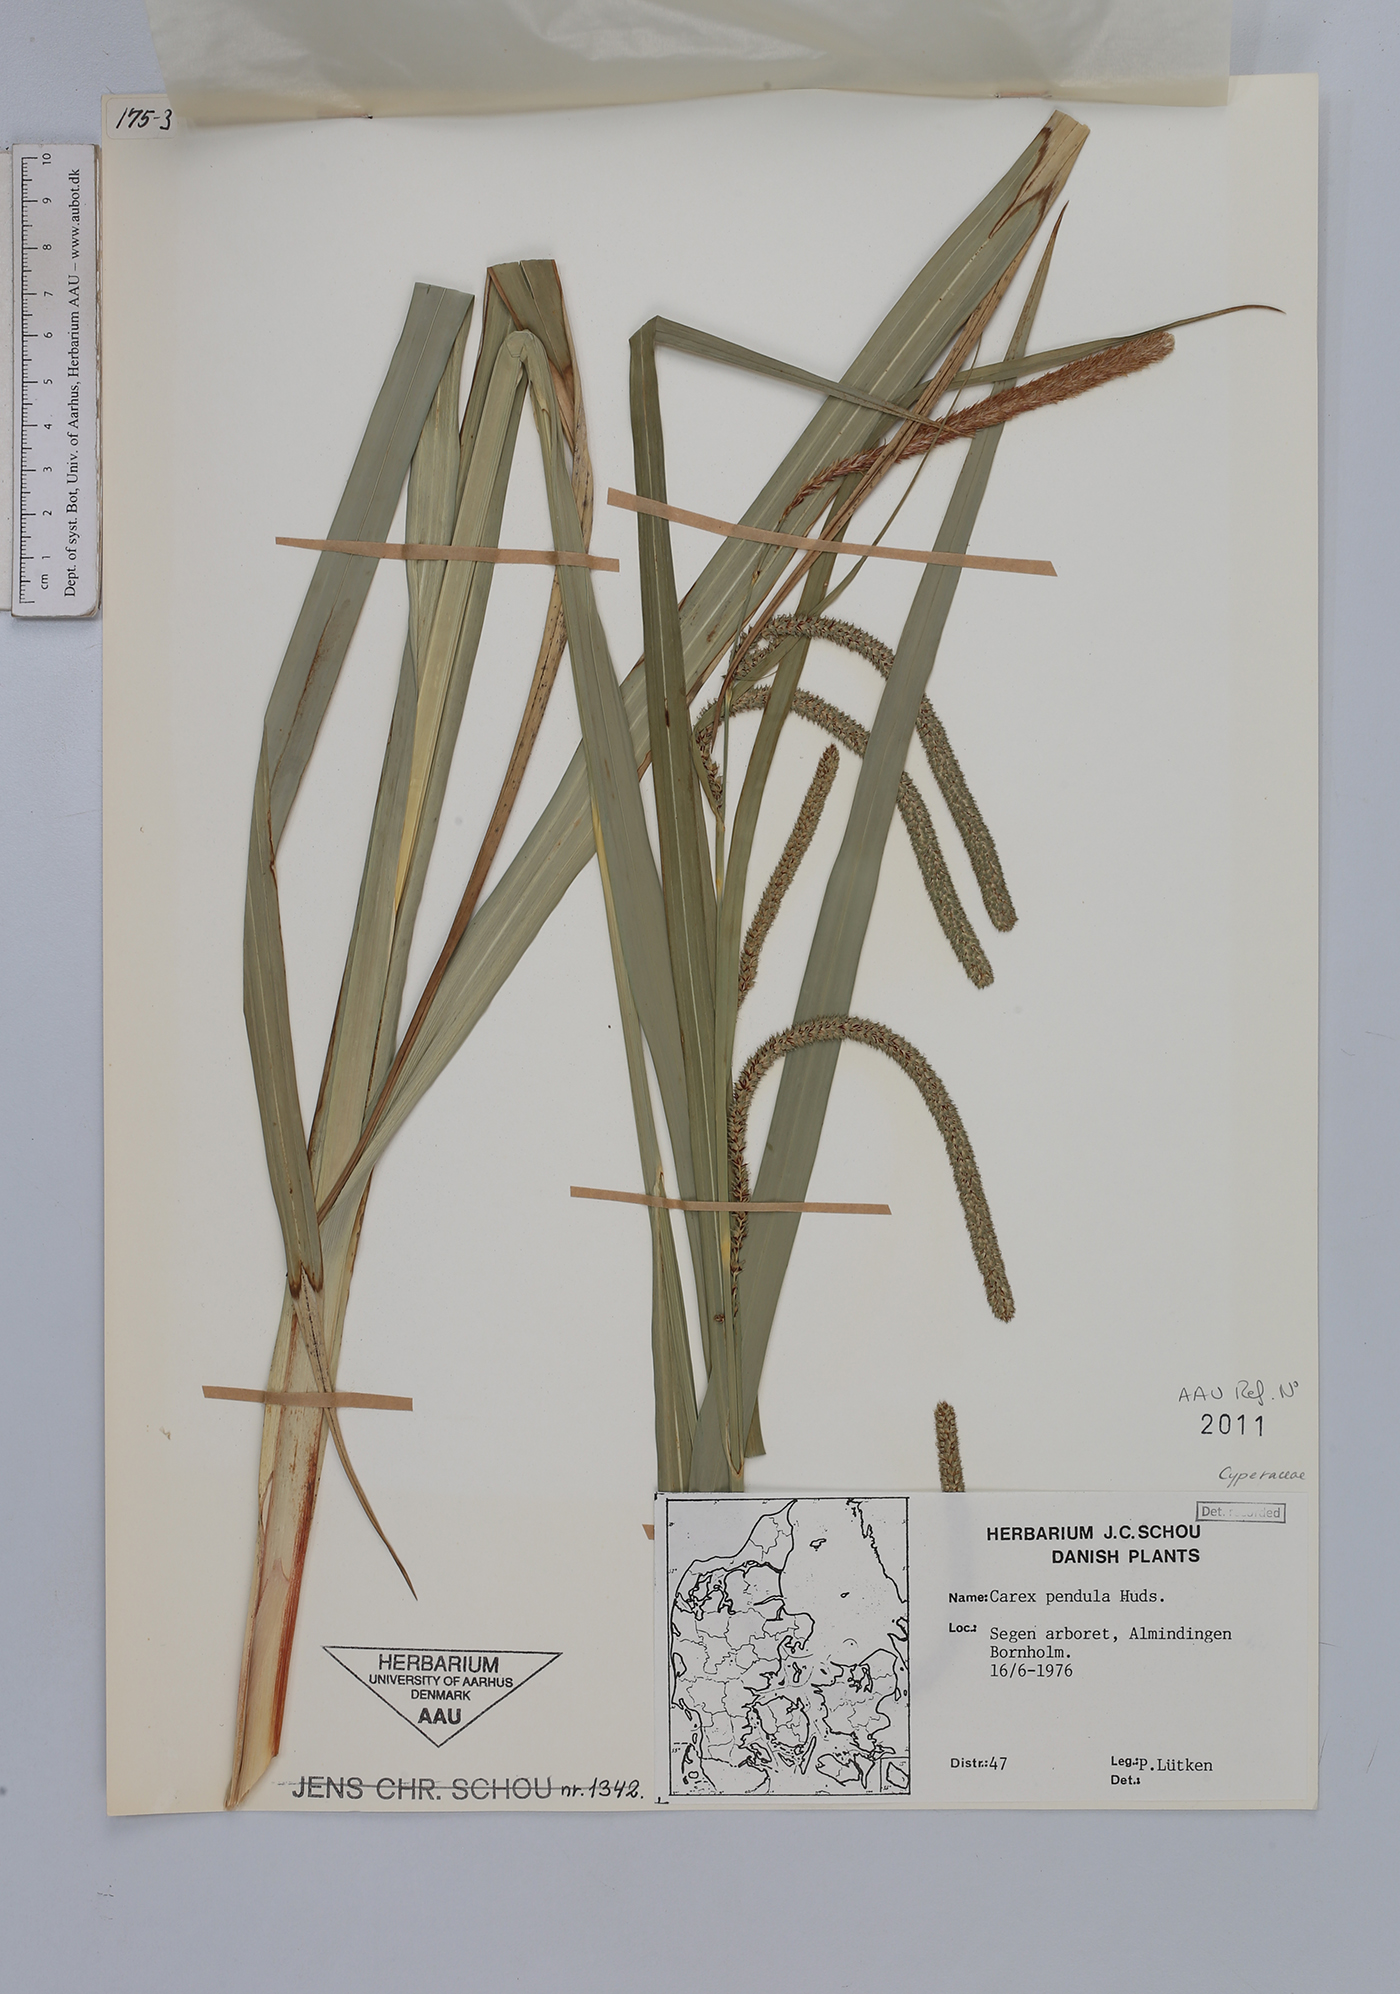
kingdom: Plantae
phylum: Tracheophyta
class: Liliopsida
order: Poales
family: Cyperaceae
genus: Carex
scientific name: Carex agastachys
